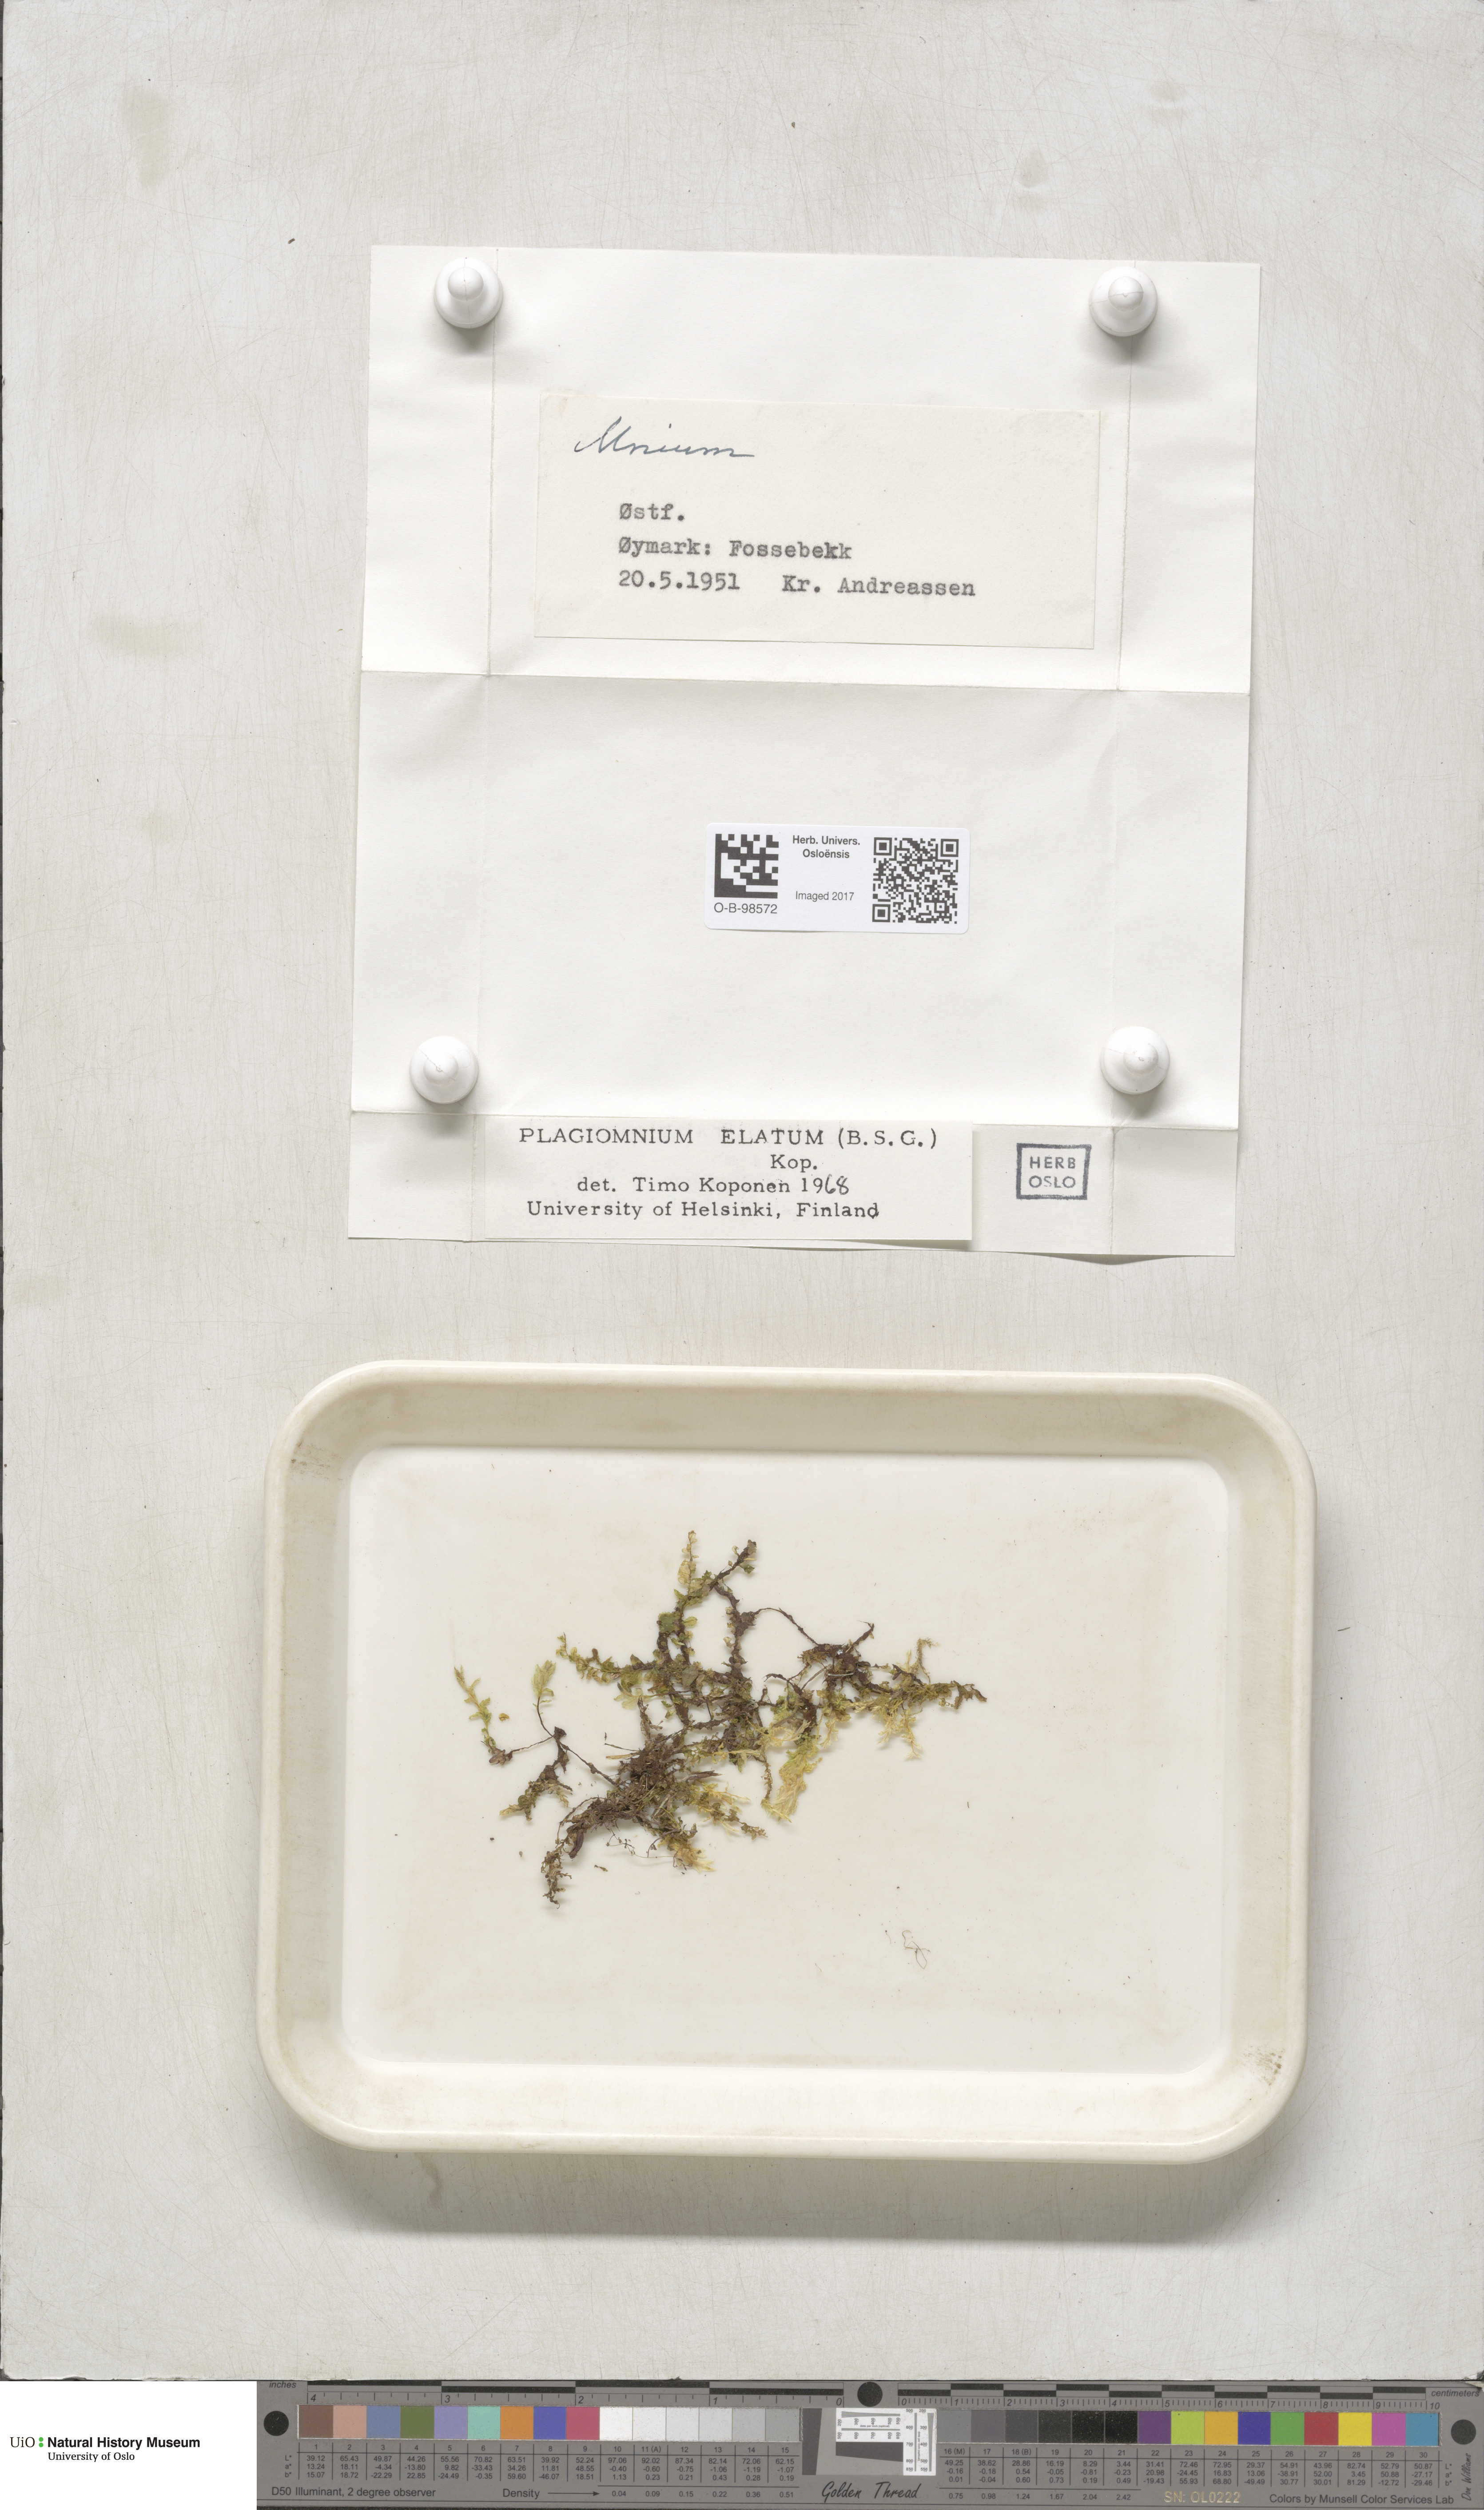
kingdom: Plantae
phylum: Bryophyta
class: Bryopsida
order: Bryales
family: Mniaceae
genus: Plagiomnium
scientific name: Plagiomnium elatum
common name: Tall thyme-moss
